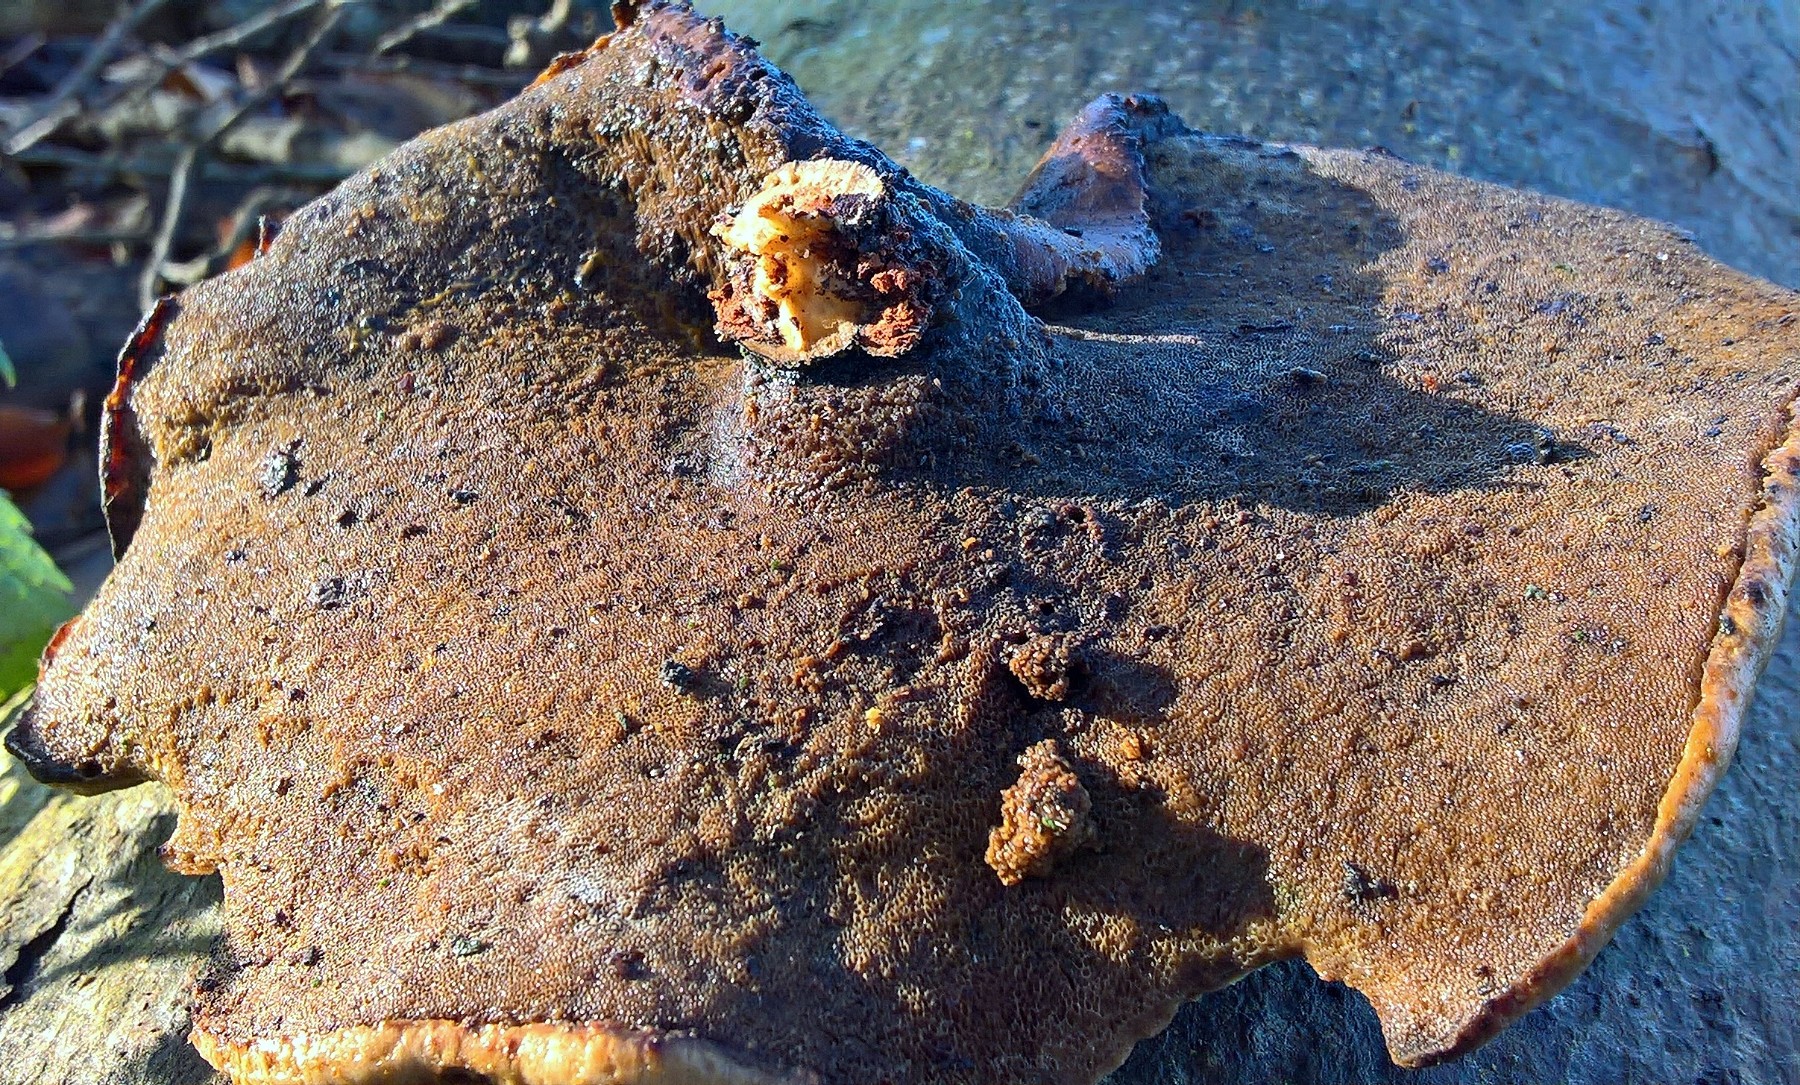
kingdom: Fungi
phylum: Basidiomycota
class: Agaricomycetes
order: Polyporales
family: Polyporaceae
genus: Cerioporus
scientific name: Cerioporus varius
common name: foranderlig stilkporesvamp
